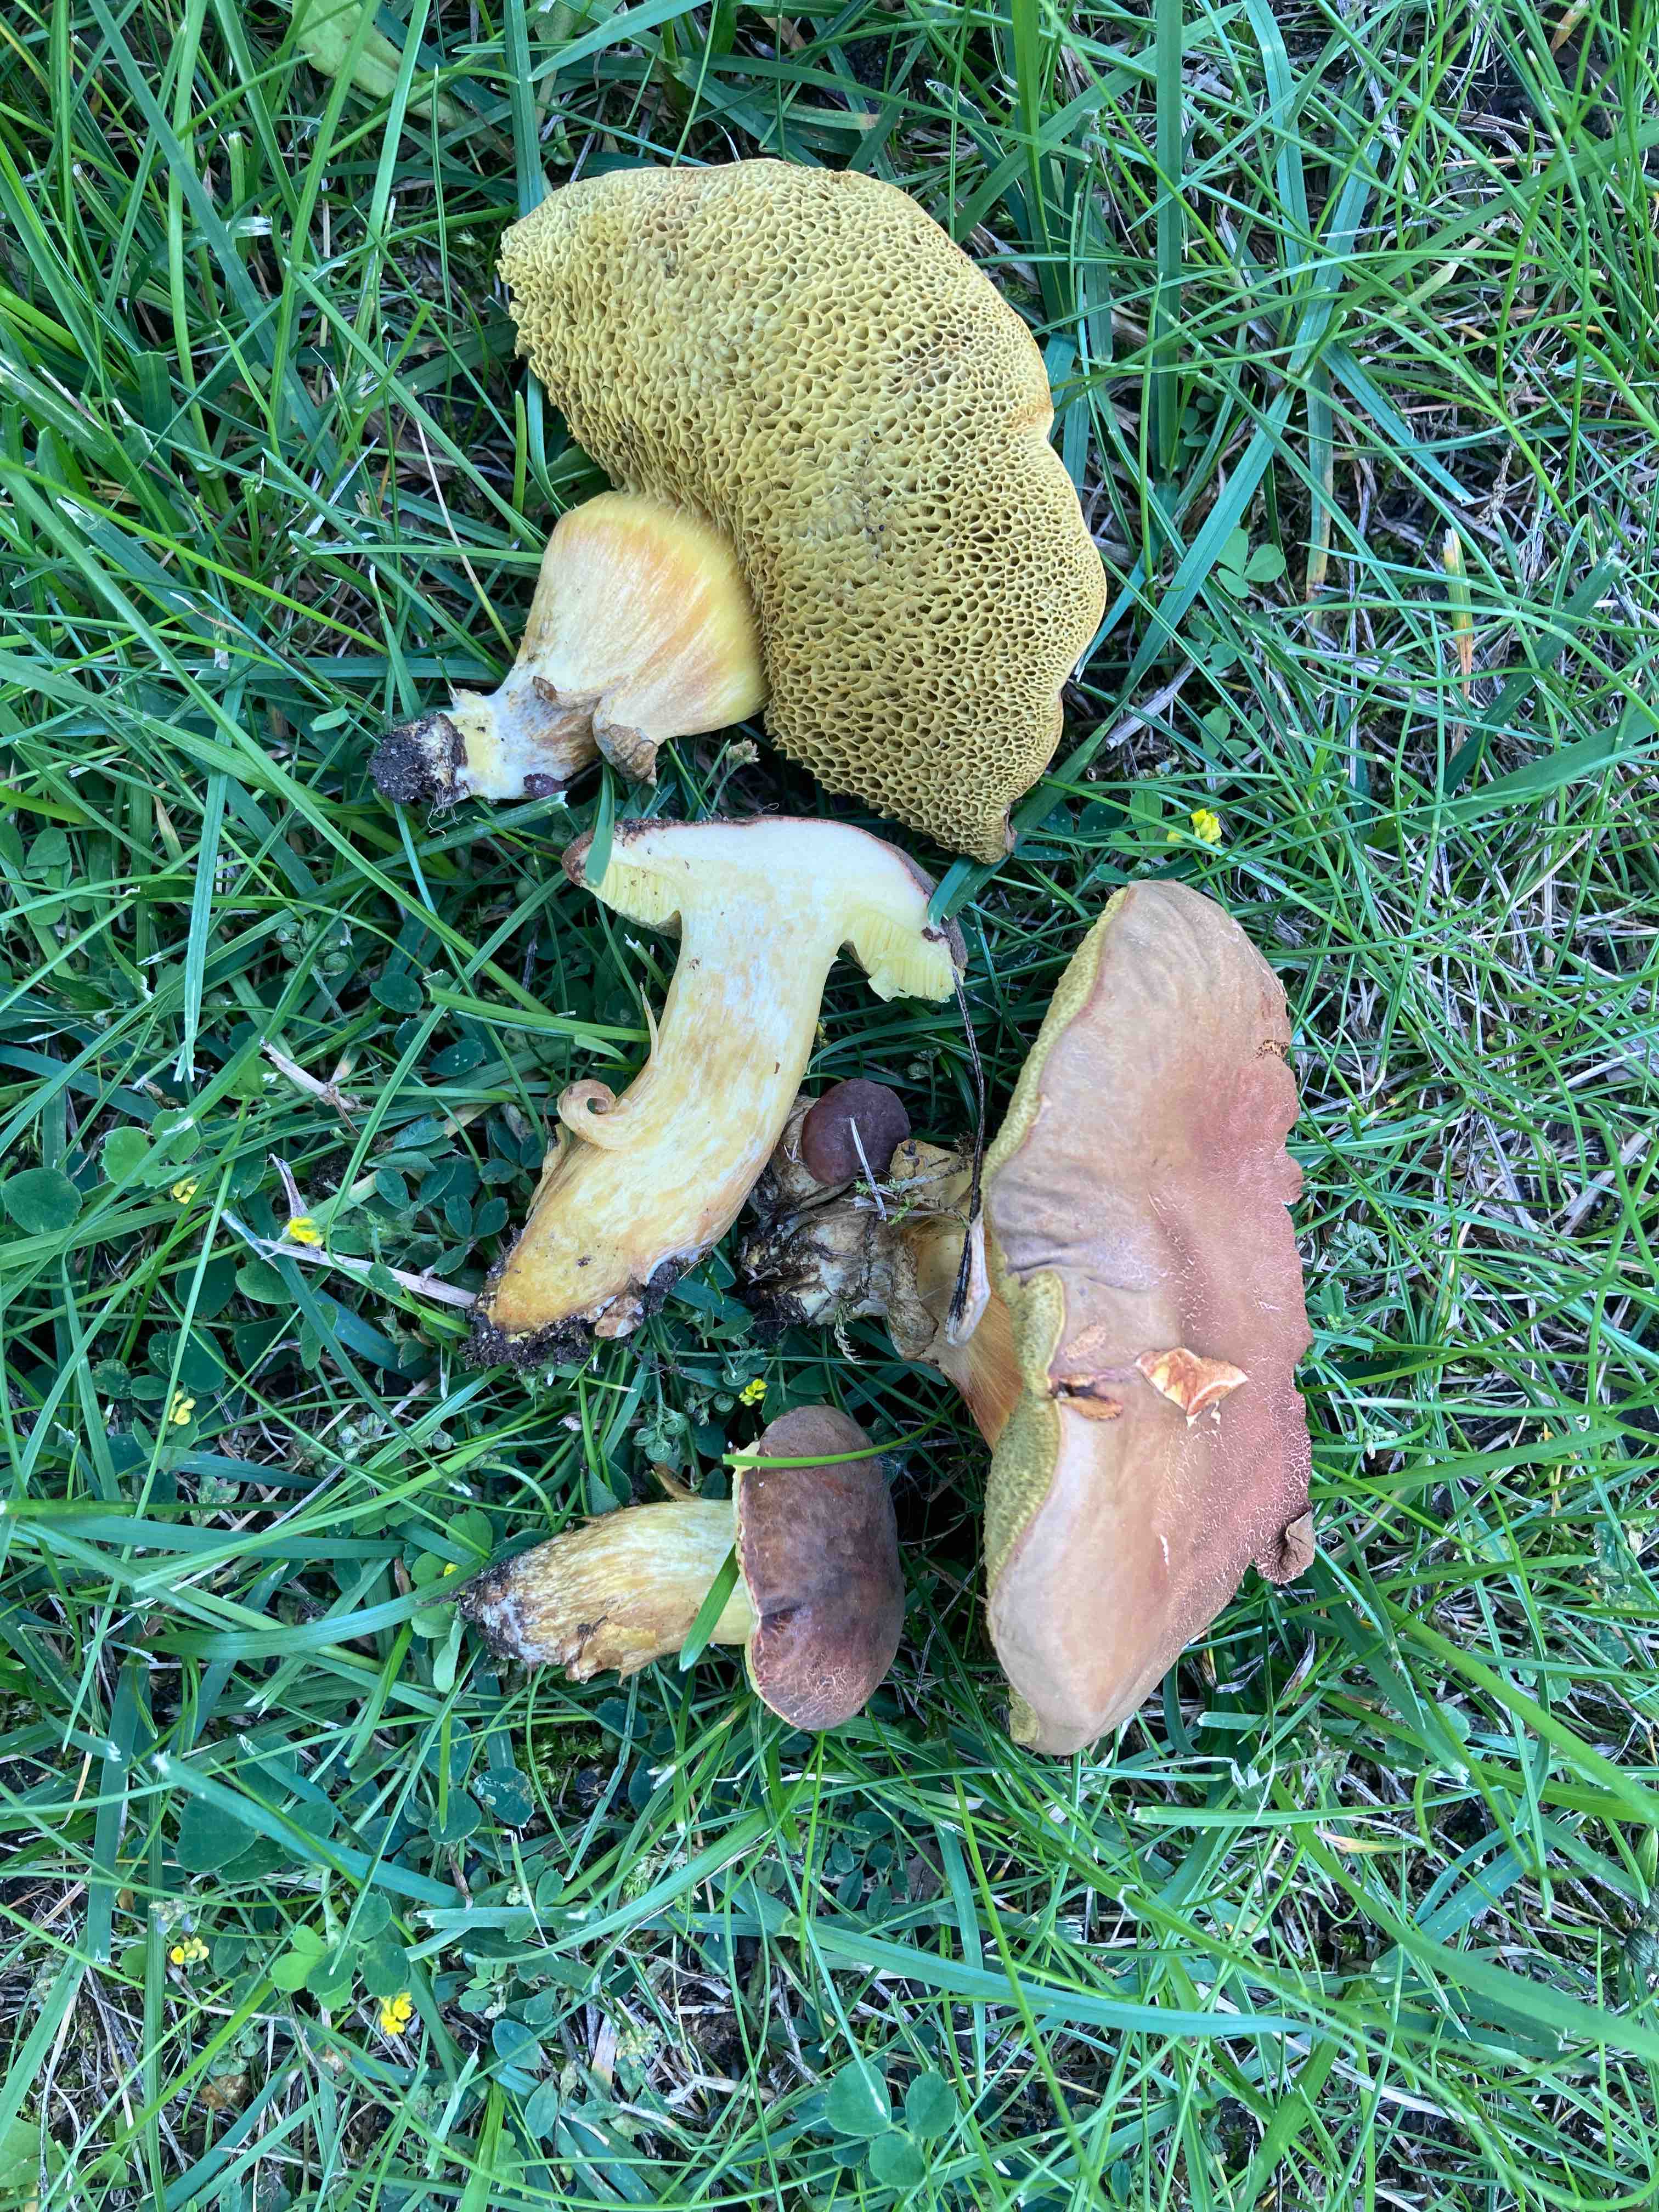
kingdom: Fungi
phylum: Basidiomycota
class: Agaricomycetes
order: Boletales
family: Boletaceae
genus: Hortiboletus
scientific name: Hortiboletus engelii
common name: fersken-rørhat
